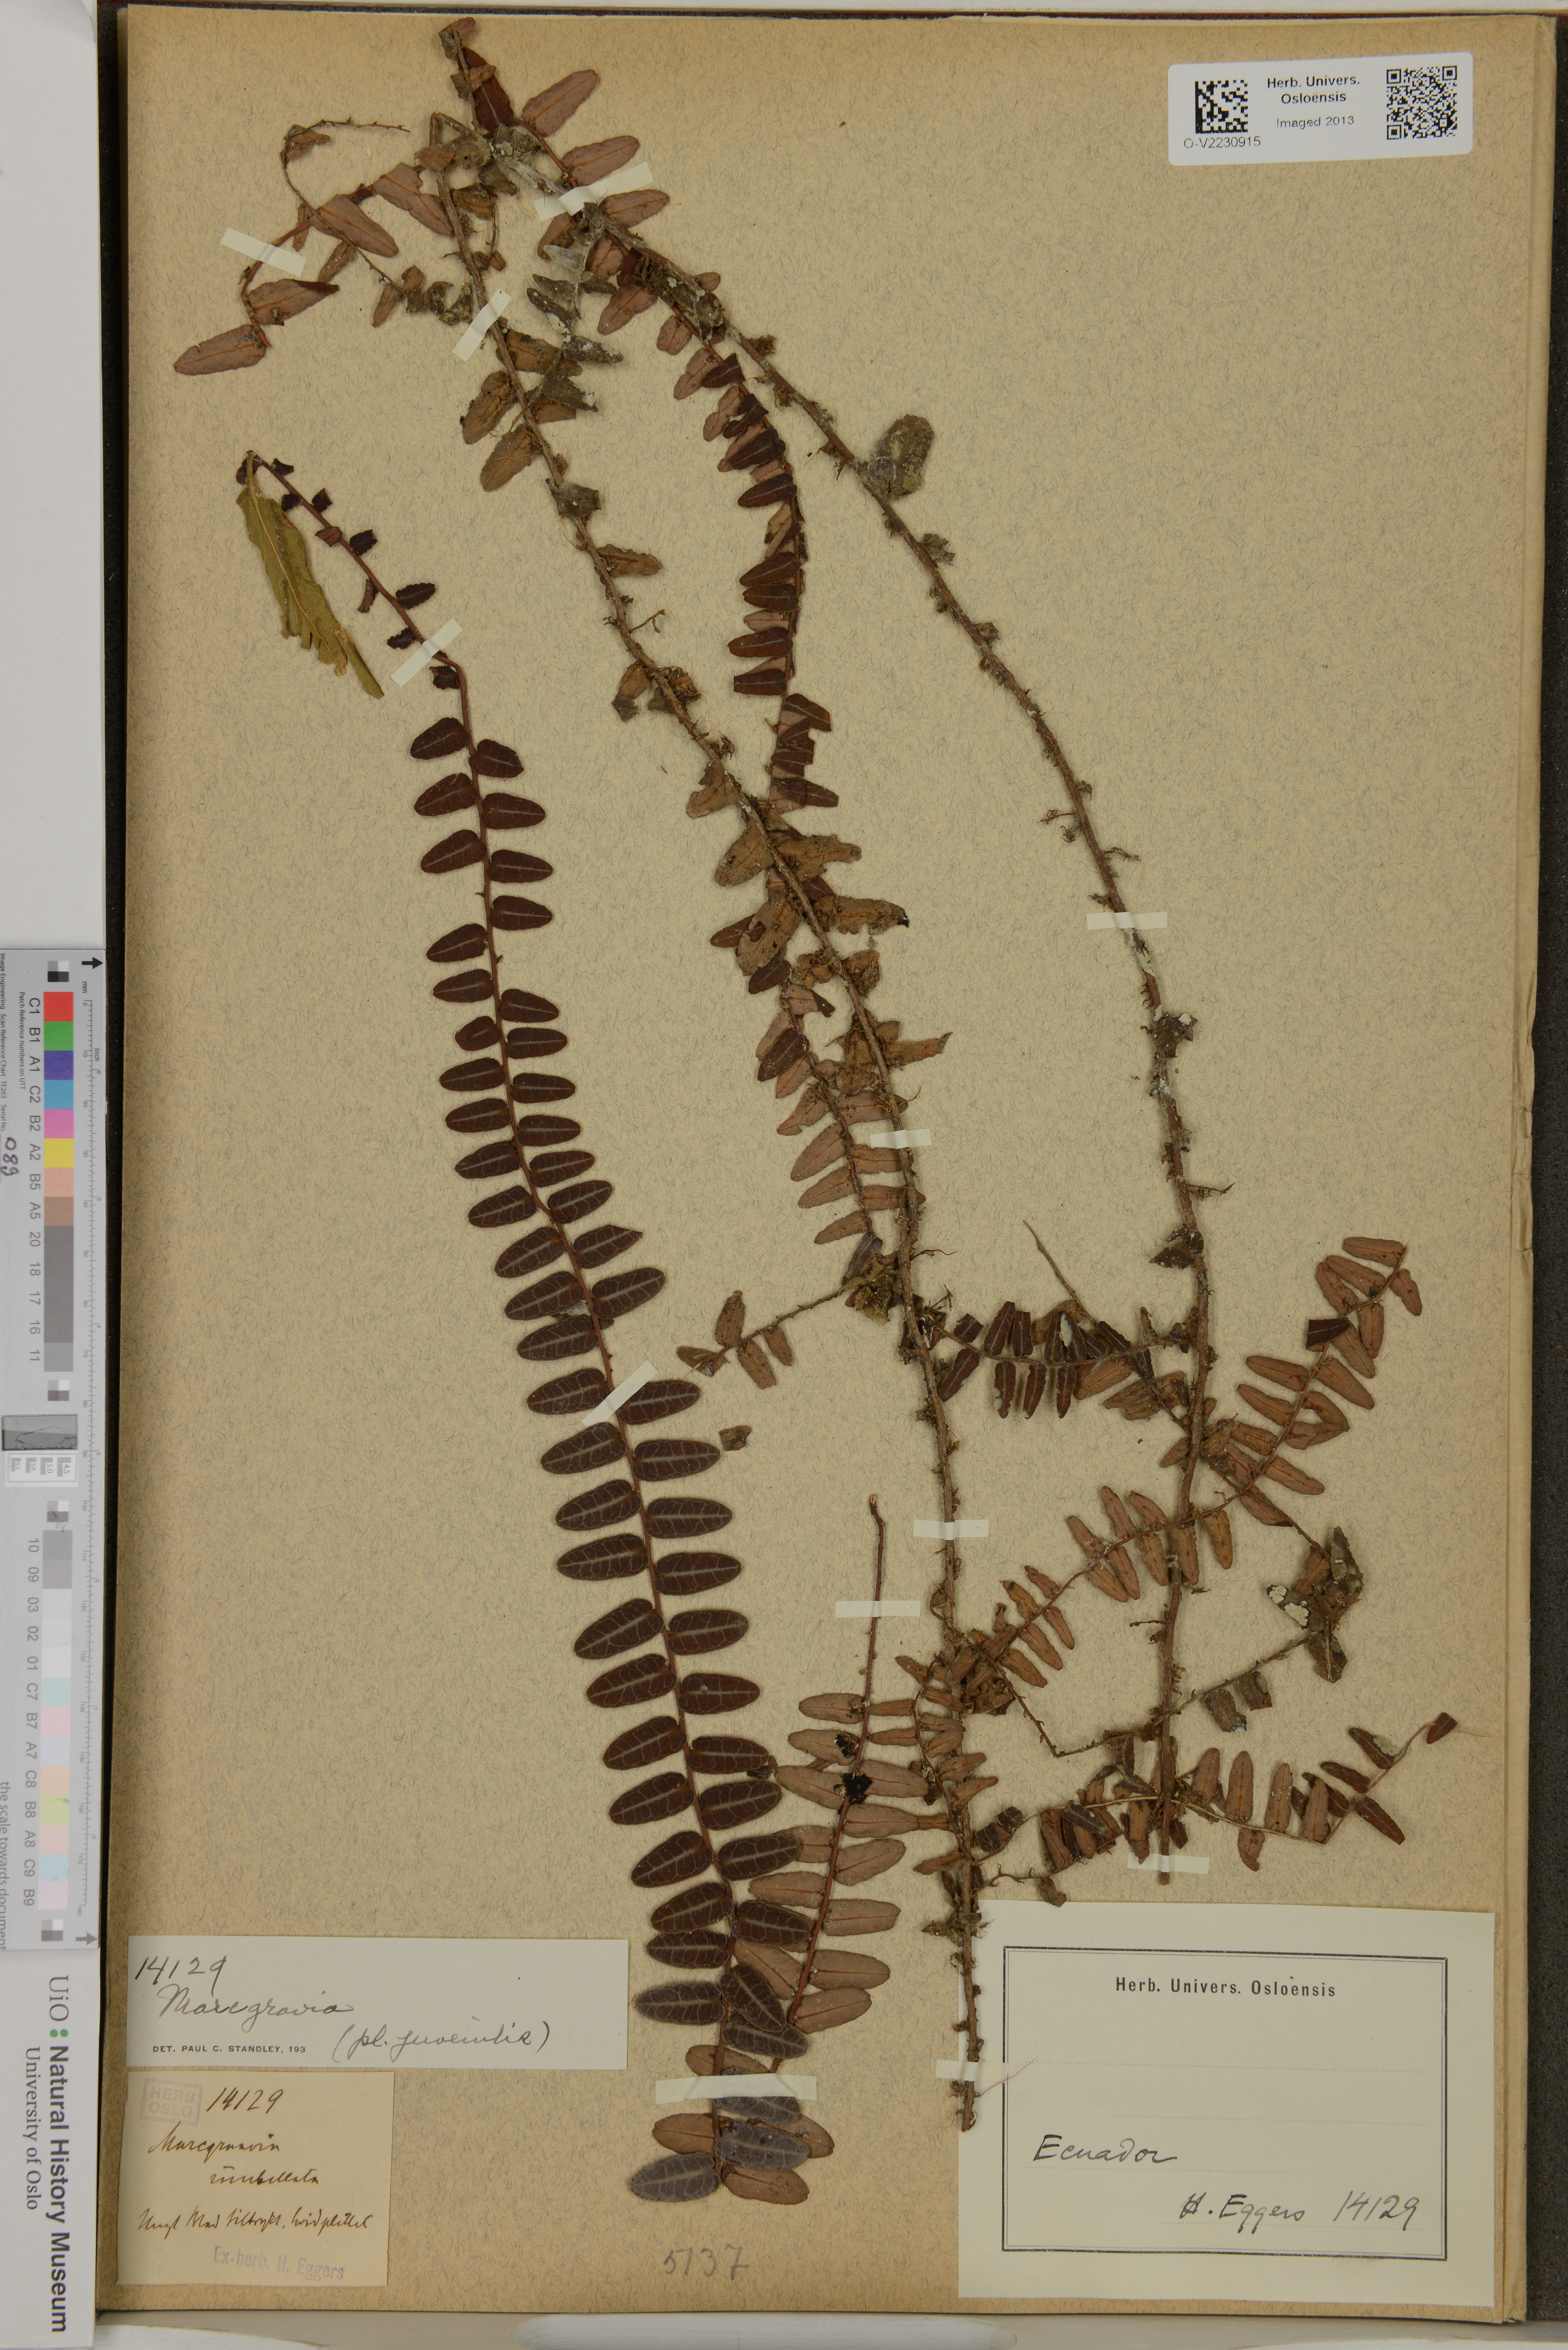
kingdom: Plantae
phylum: Tracheophyta
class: Magnoliopsida
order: Ericales
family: Marcgraviaceae
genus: Marcgravia
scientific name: Marcgravia
